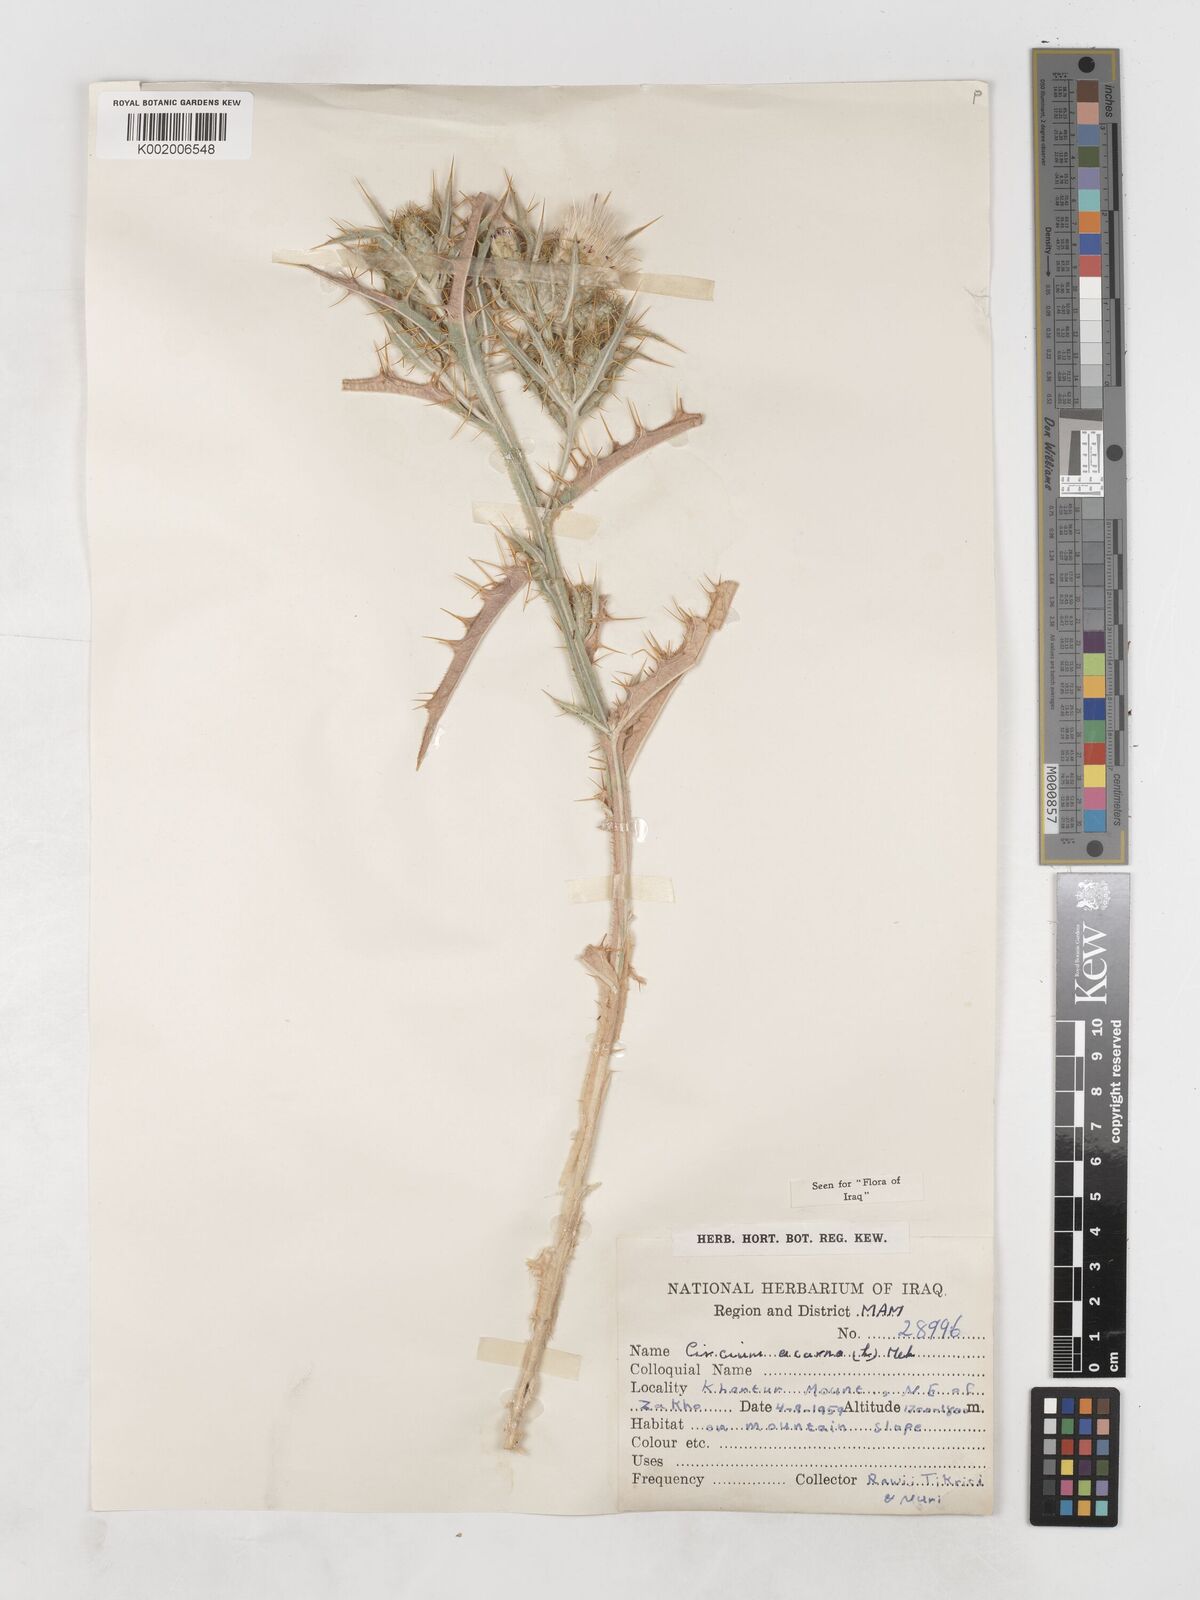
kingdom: Plantae
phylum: Tracheophyta
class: Magnoliopsida
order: Asterales
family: Asteraceae
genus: Picnomon
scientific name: Picnomon acarna
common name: Soldier thistle
